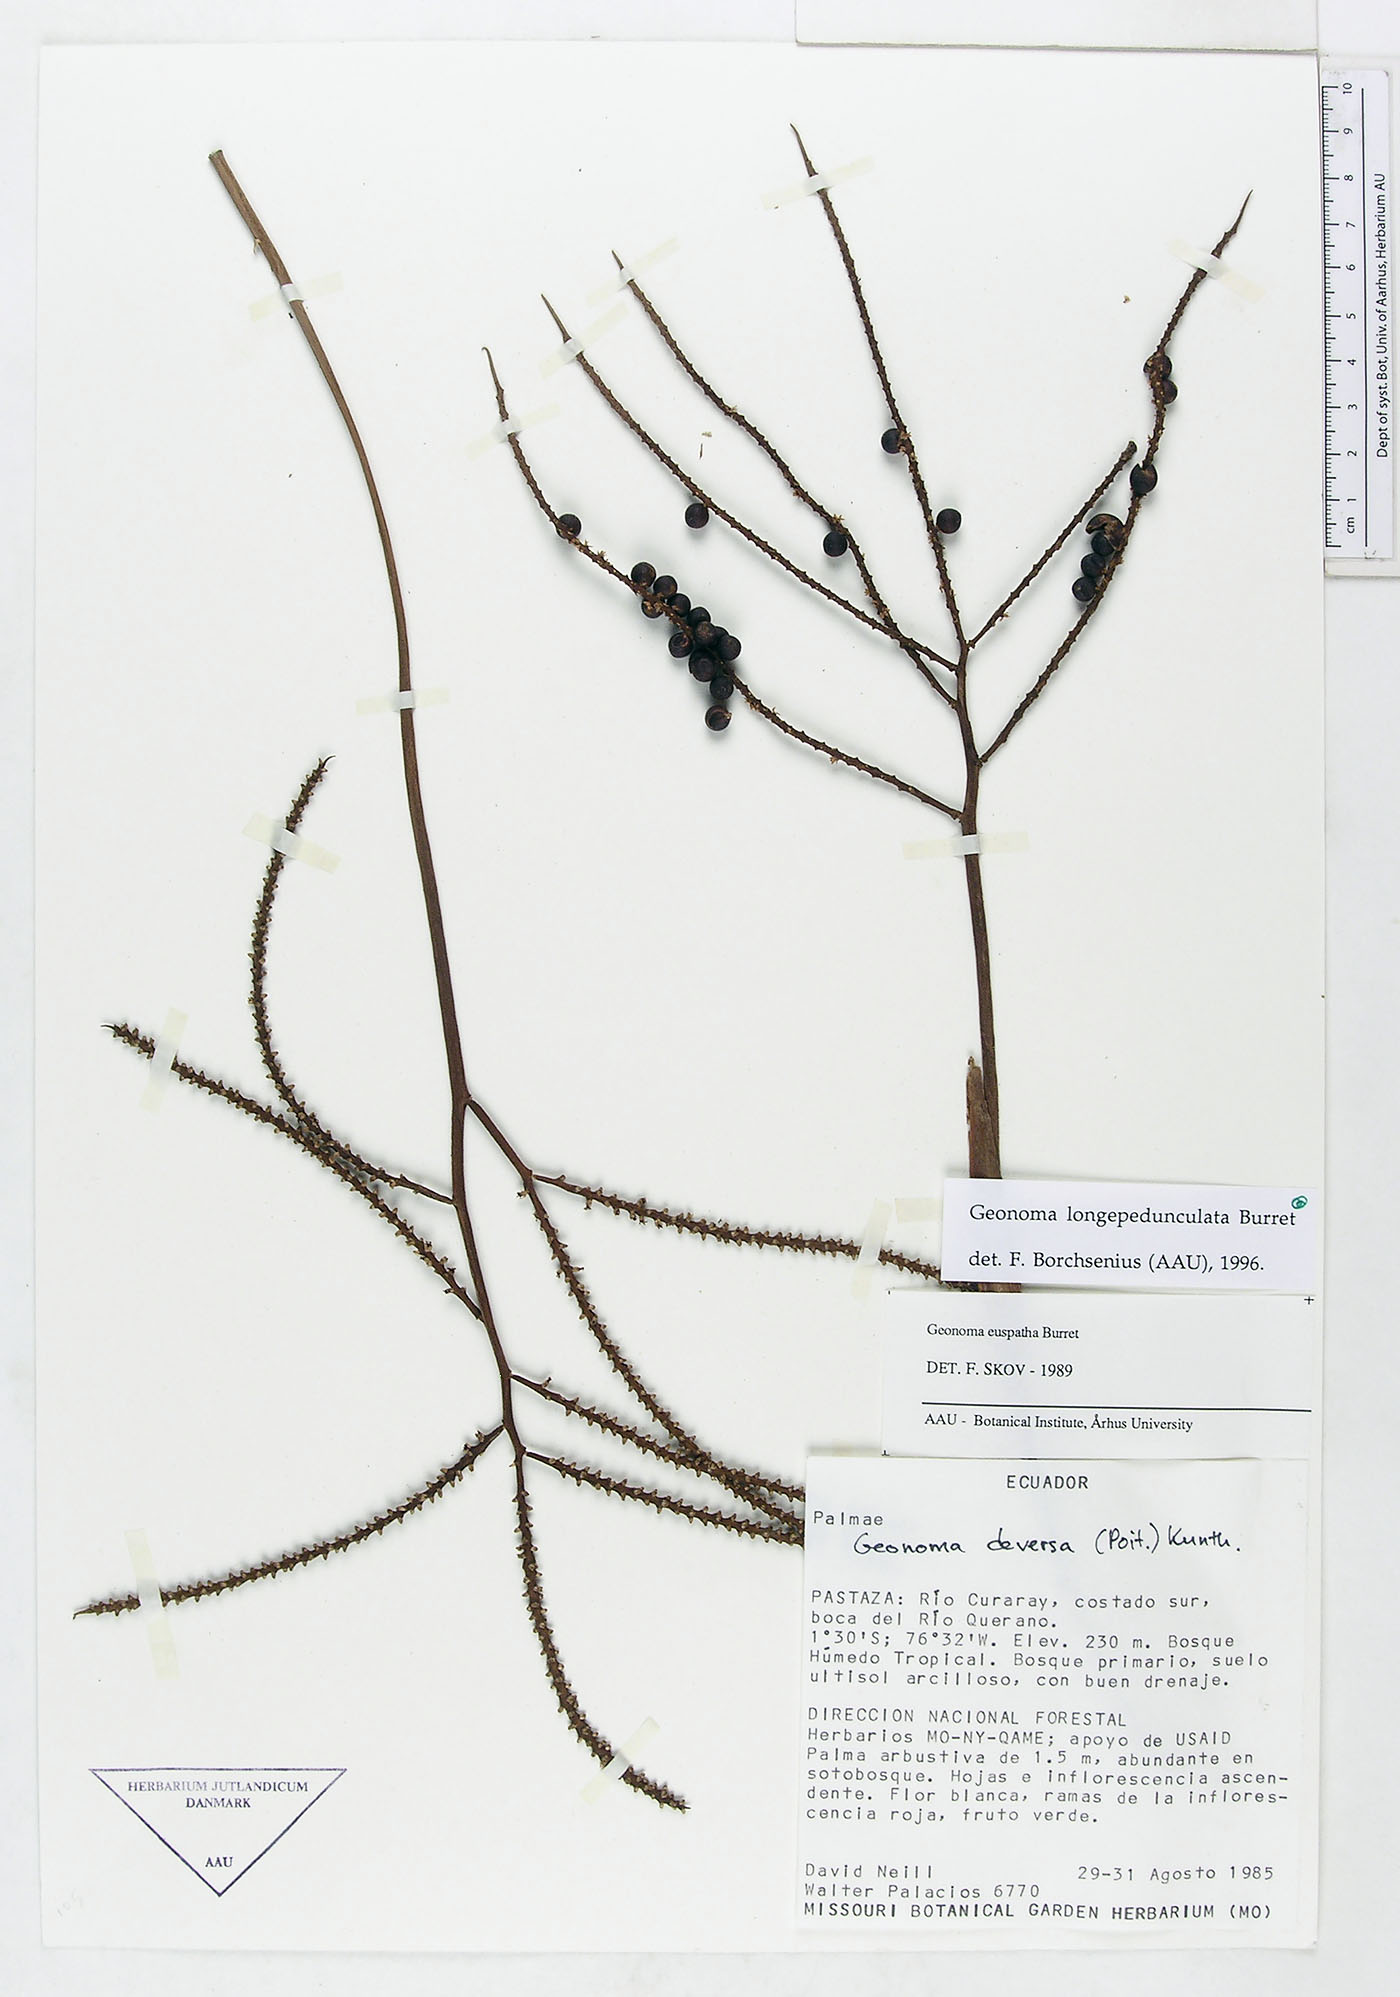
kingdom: Plantae
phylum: Tracheophyta
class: Liliopsida
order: Arecales
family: Arecaceae
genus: Geonoma
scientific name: Geonoma longepedunculata
